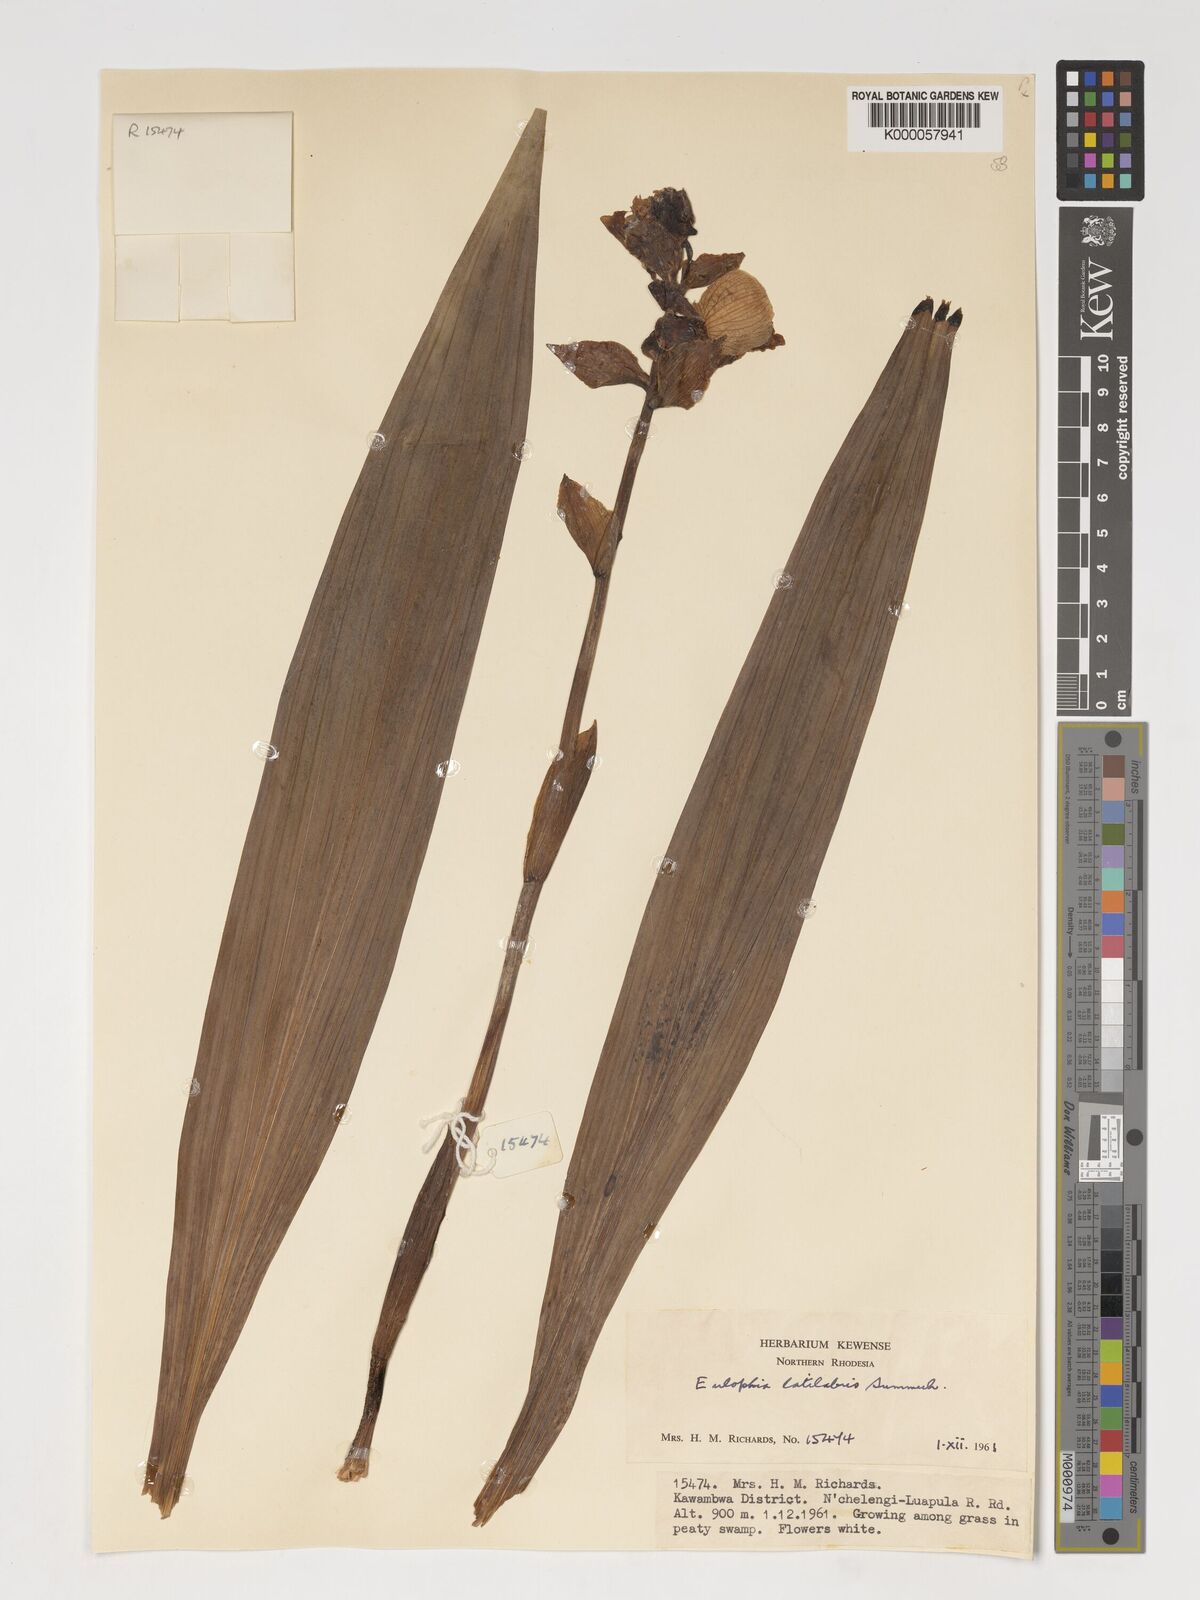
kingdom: Plantae
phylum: Tracheophyta
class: Liliopsida
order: Asparagales
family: Orchidaceae
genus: Eulophia
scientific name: Eulophia latilabris
